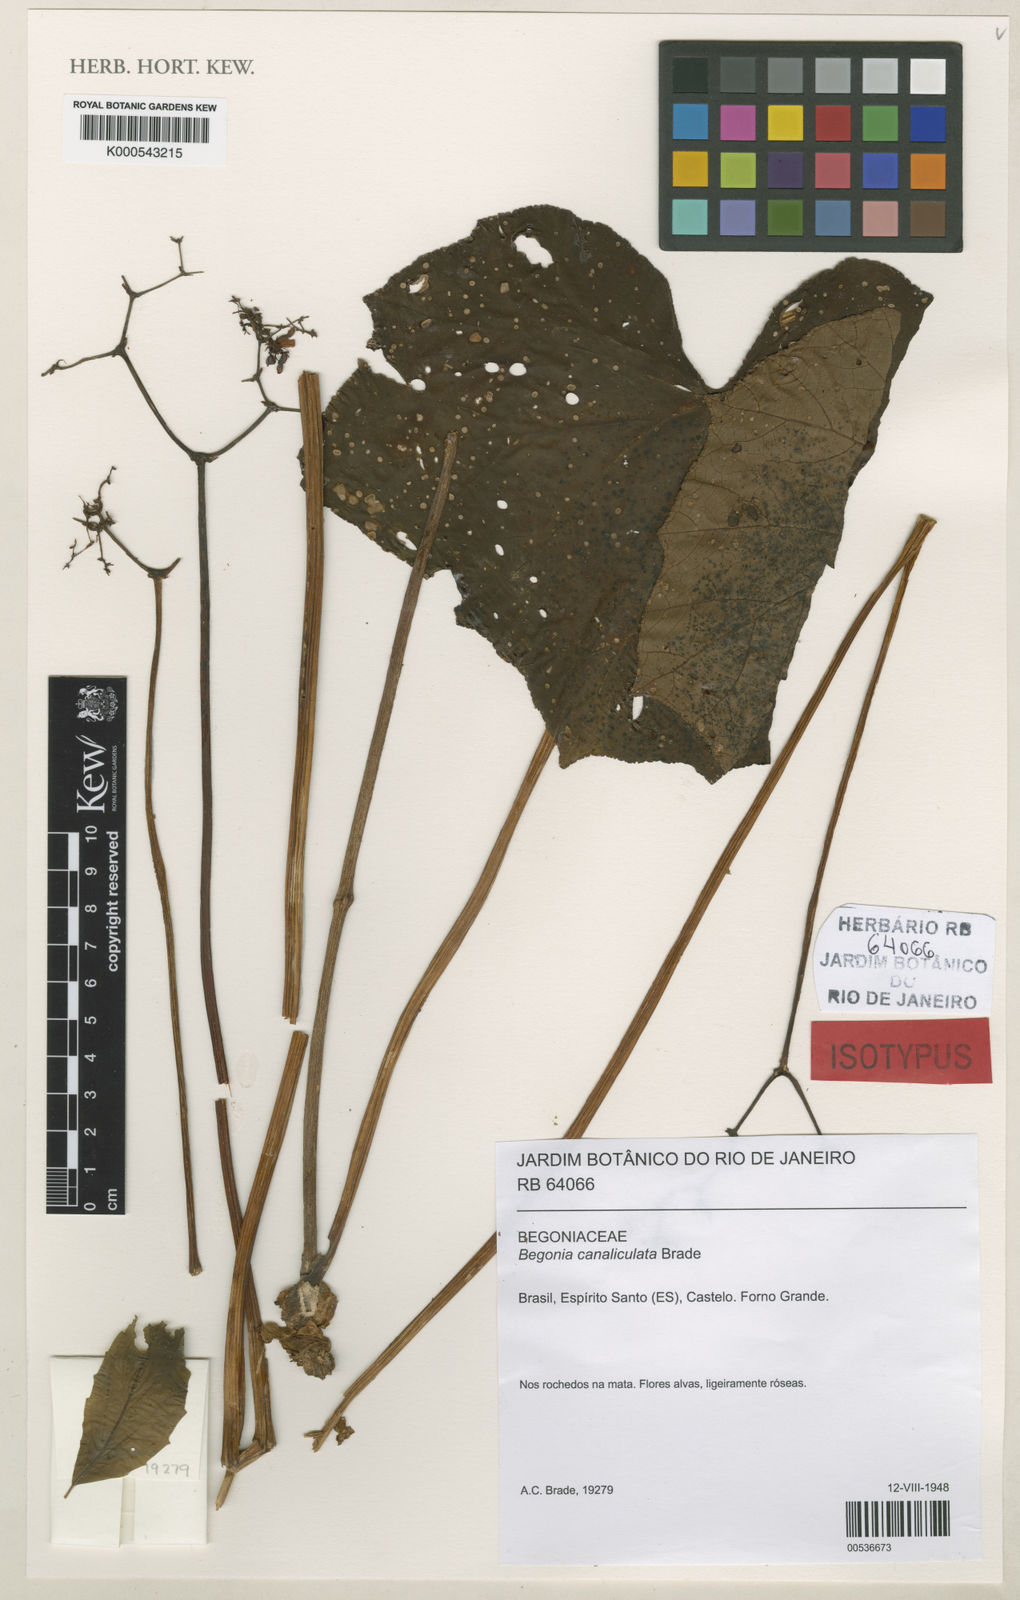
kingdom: Plantae
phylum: Tracheophyta
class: Magnoliopsida
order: Cucurbitales
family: Begoniaceae
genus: Begonia
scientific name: Begonia sylvatica
